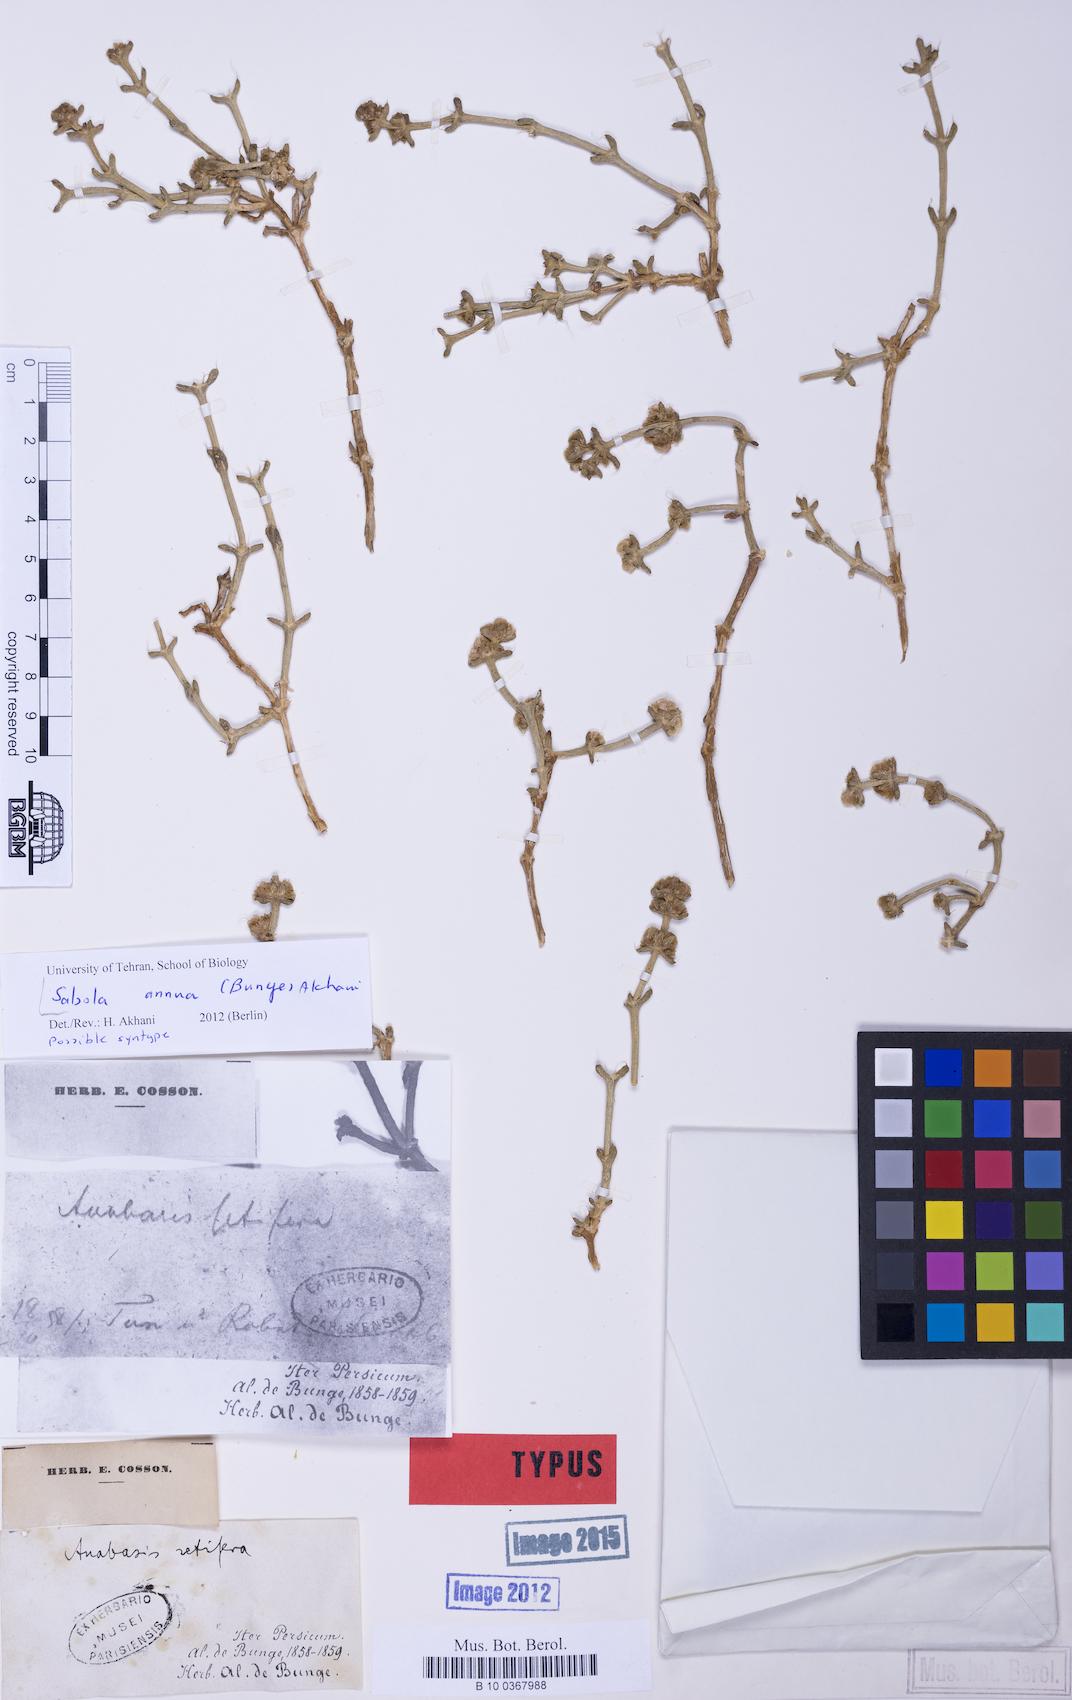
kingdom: Plantae
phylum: Tracheophyta
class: Magnoliopsida
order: Caryophyllales
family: Amaranthaceae
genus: Anabasis
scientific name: Anabasis setifera
